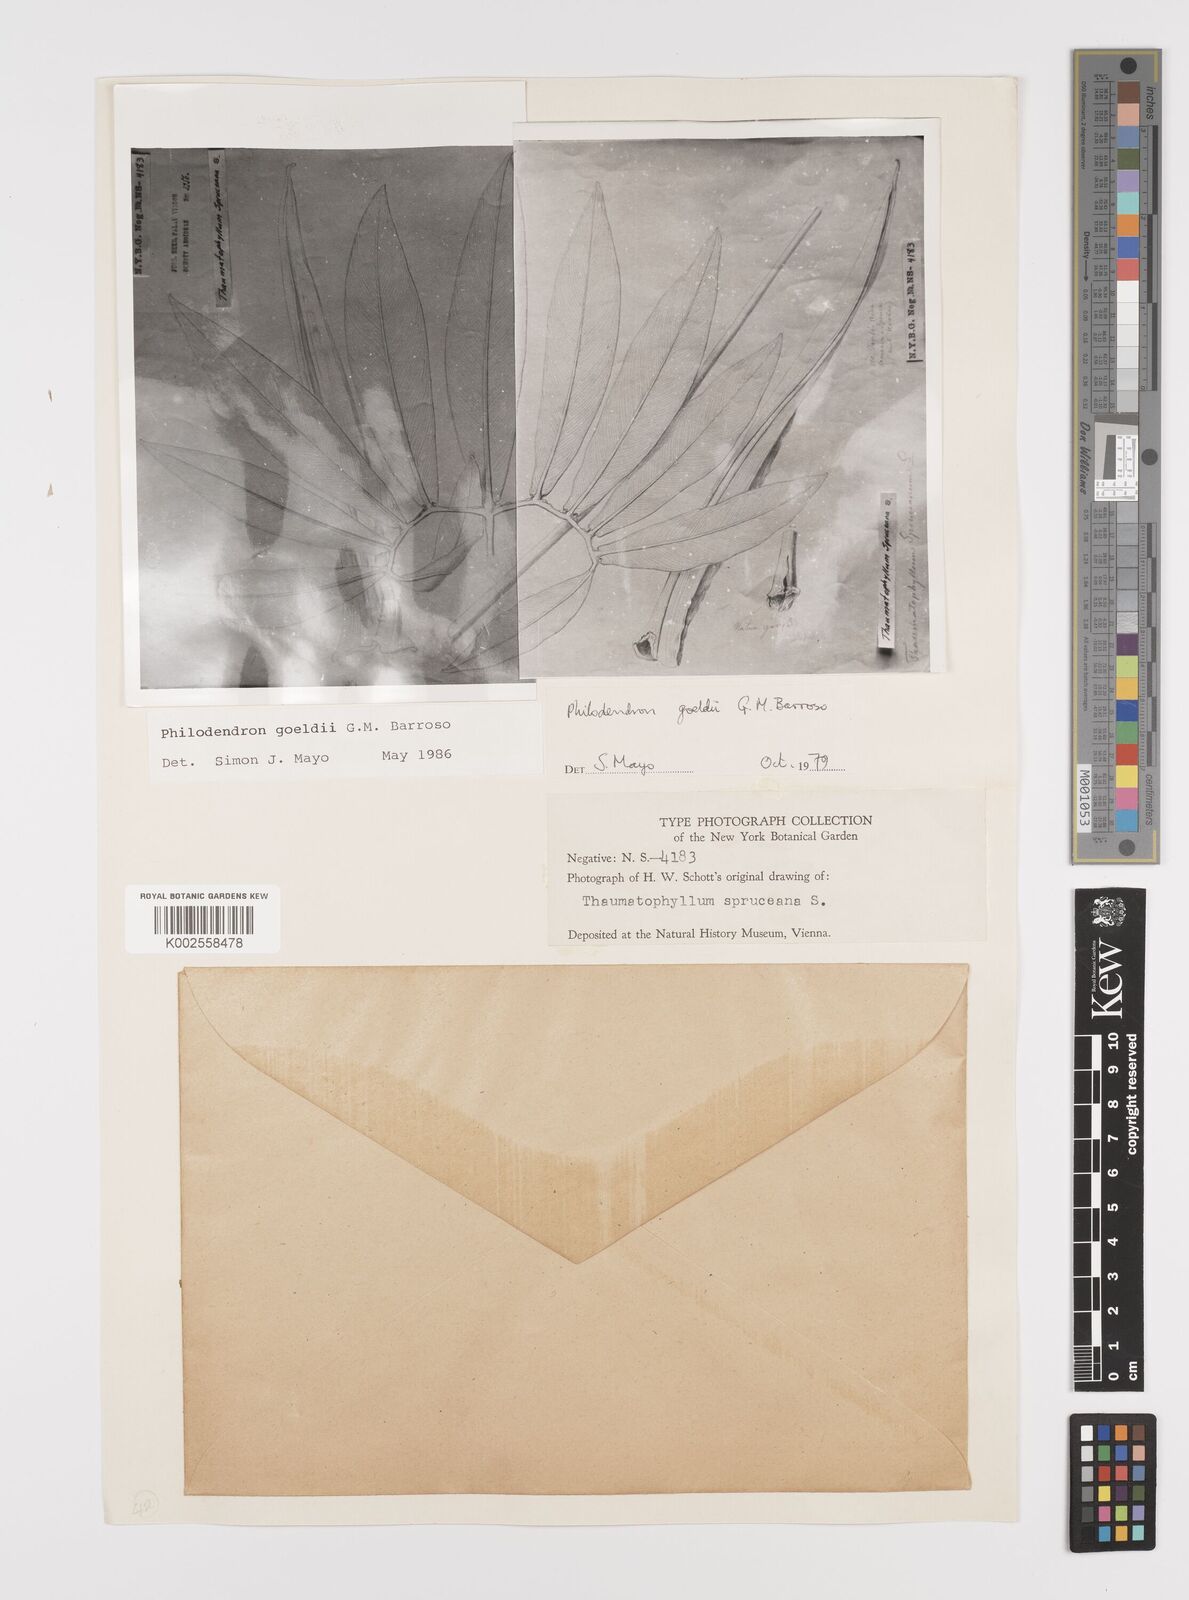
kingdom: Plantae
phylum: Tracheophyta
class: Liliopsida
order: Alismatales
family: Araceae
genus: Thaumatophyllum
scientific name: Thaumatophyllum spruceanum
